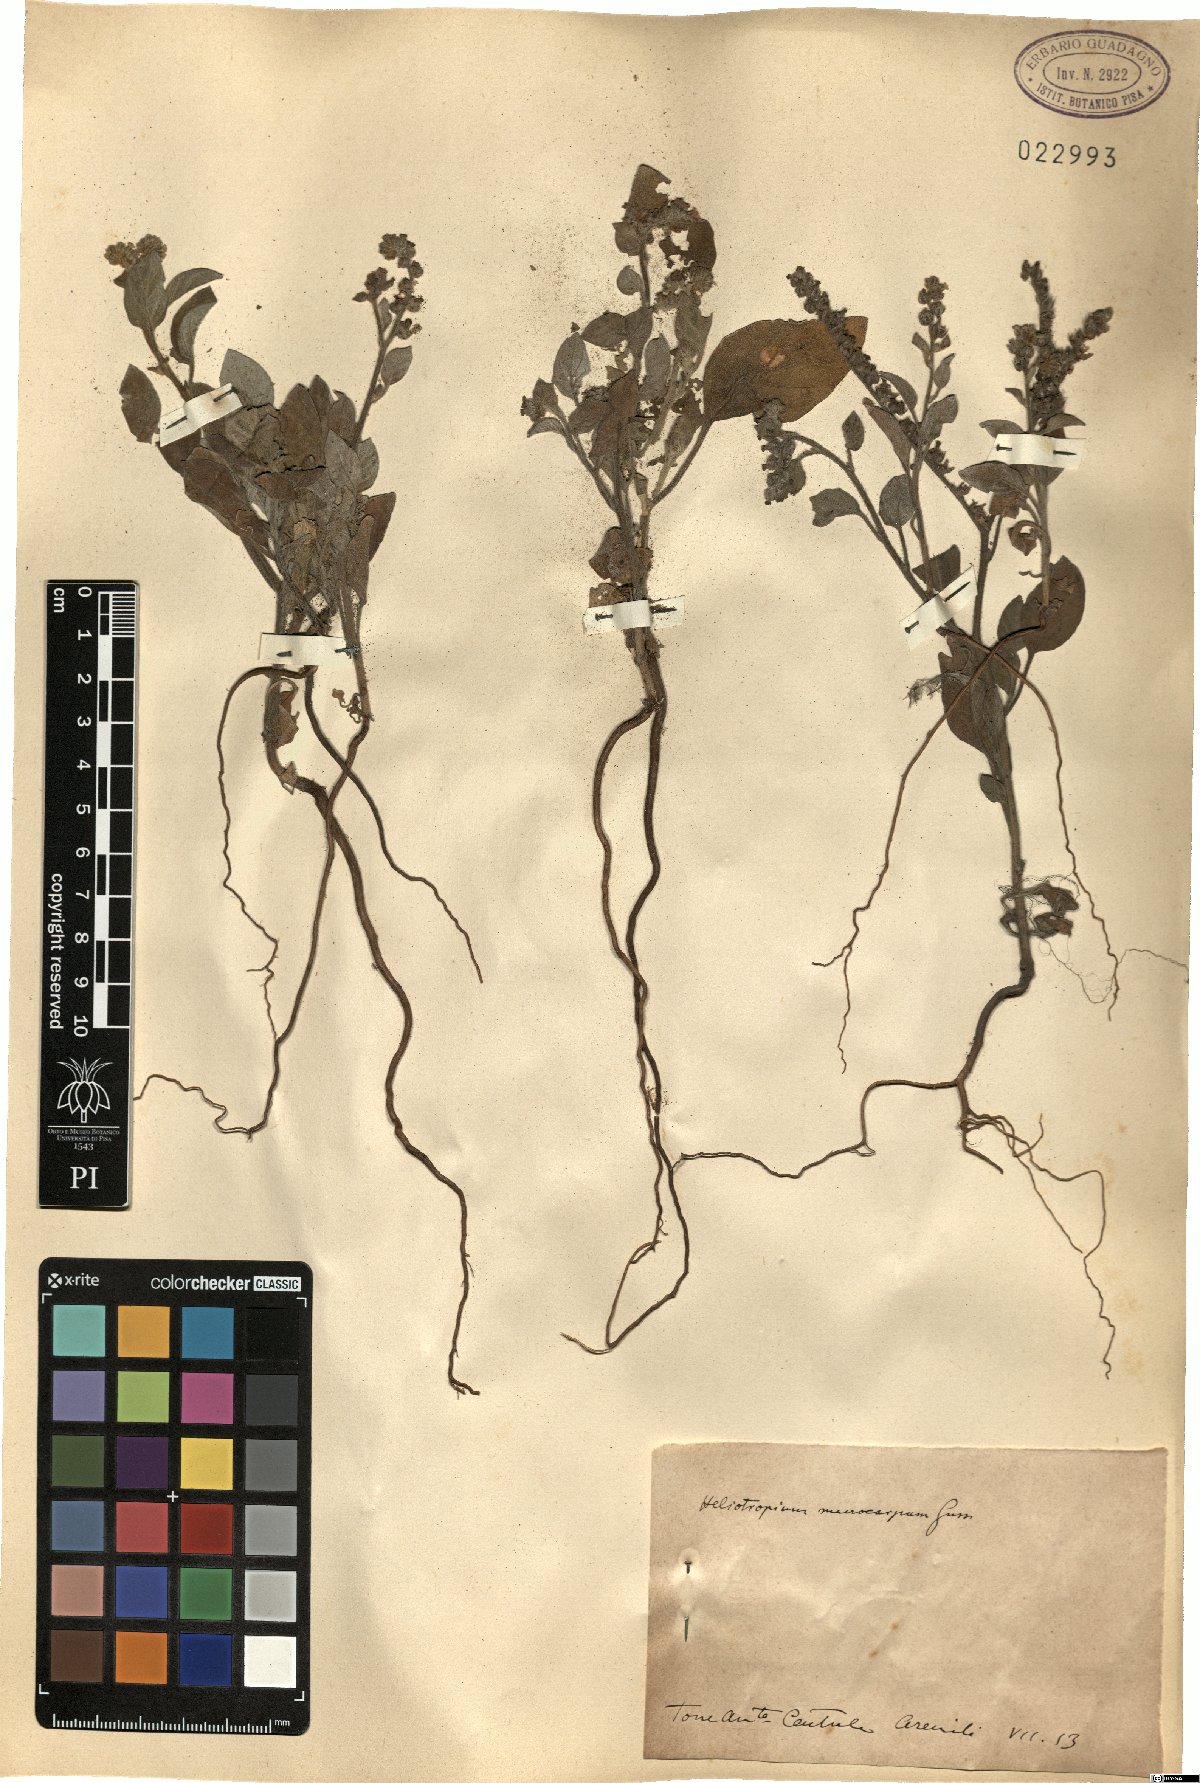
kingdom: Plantae
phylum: Tracheophyta
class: Magnoliopsida
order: Boraginales
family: Heliotropiaceae
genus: Heliotropium
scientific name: Heliotropium dolosum
